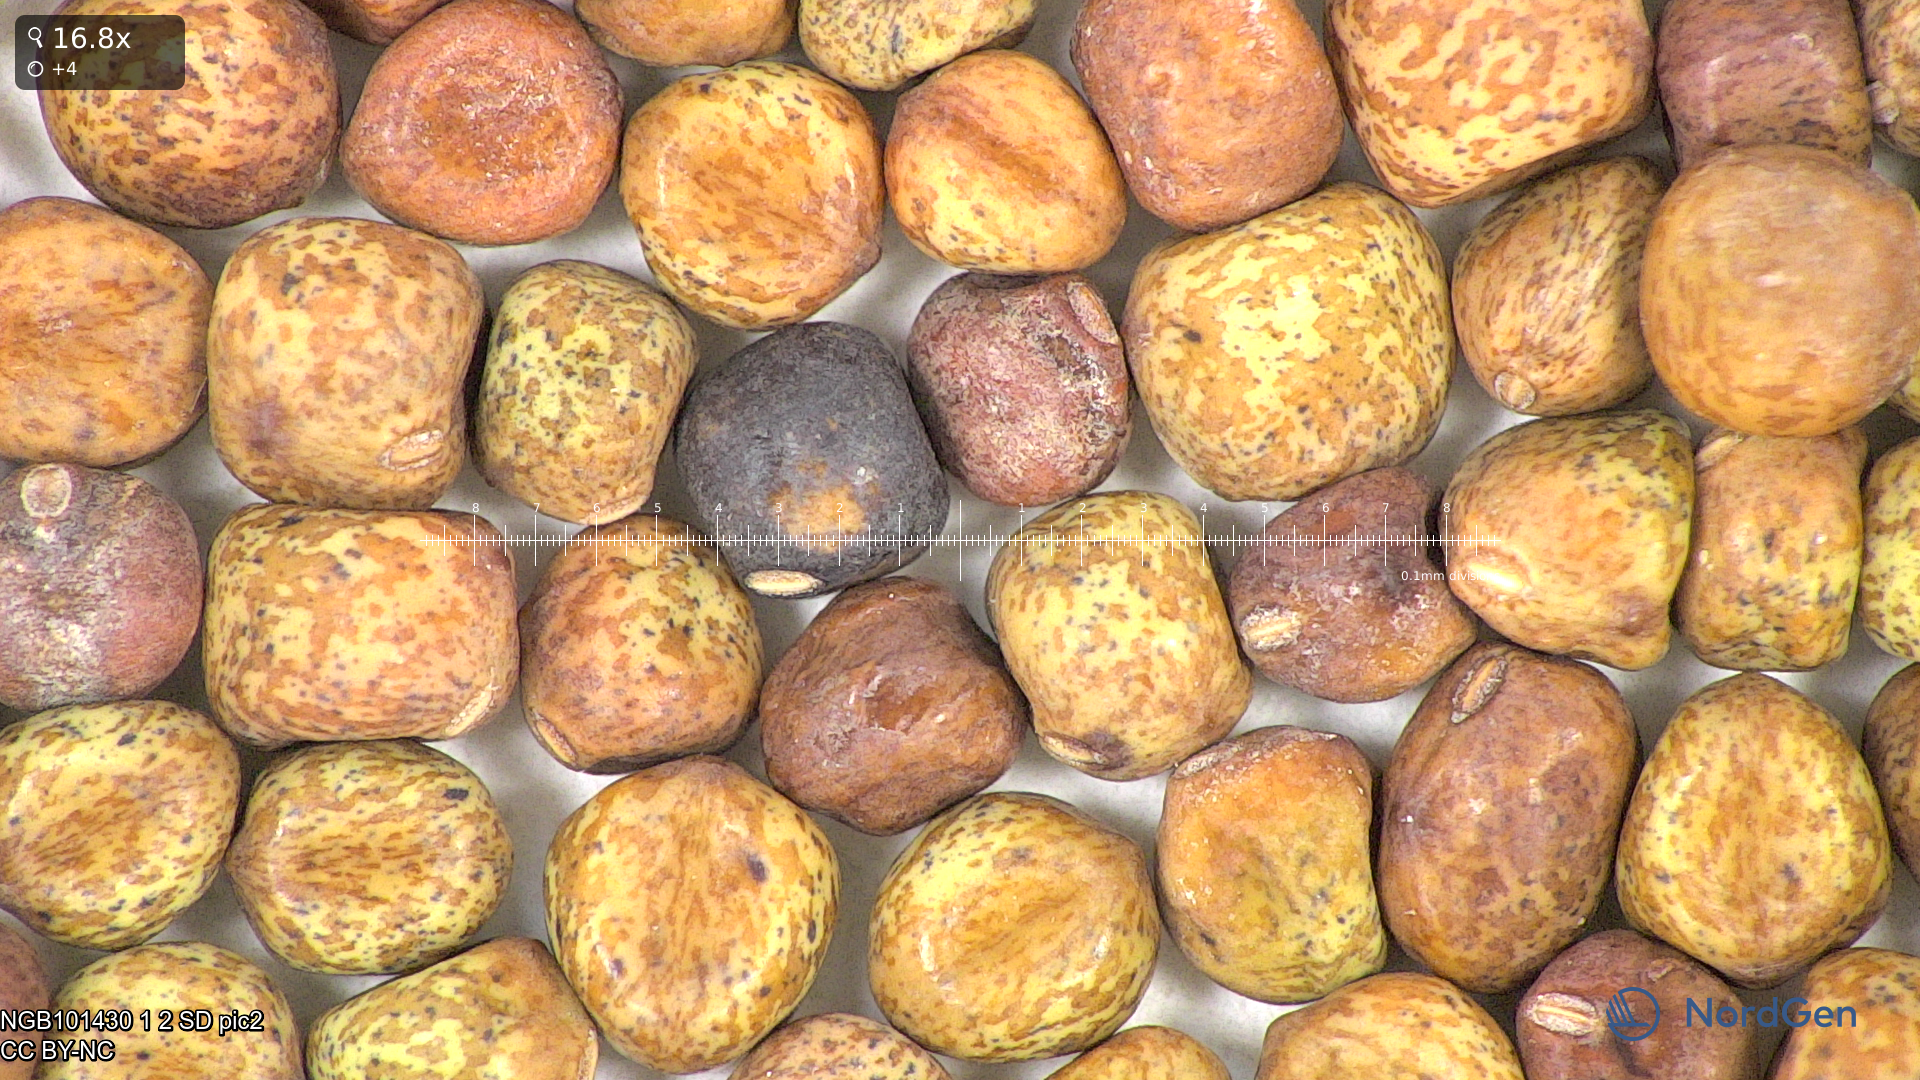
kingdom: Plantae
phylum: Tracheophyta
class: Magnoliopsida
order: Fabales
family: Fabaceae
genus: Lathyrus
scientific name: Lathyrus oleraceus
